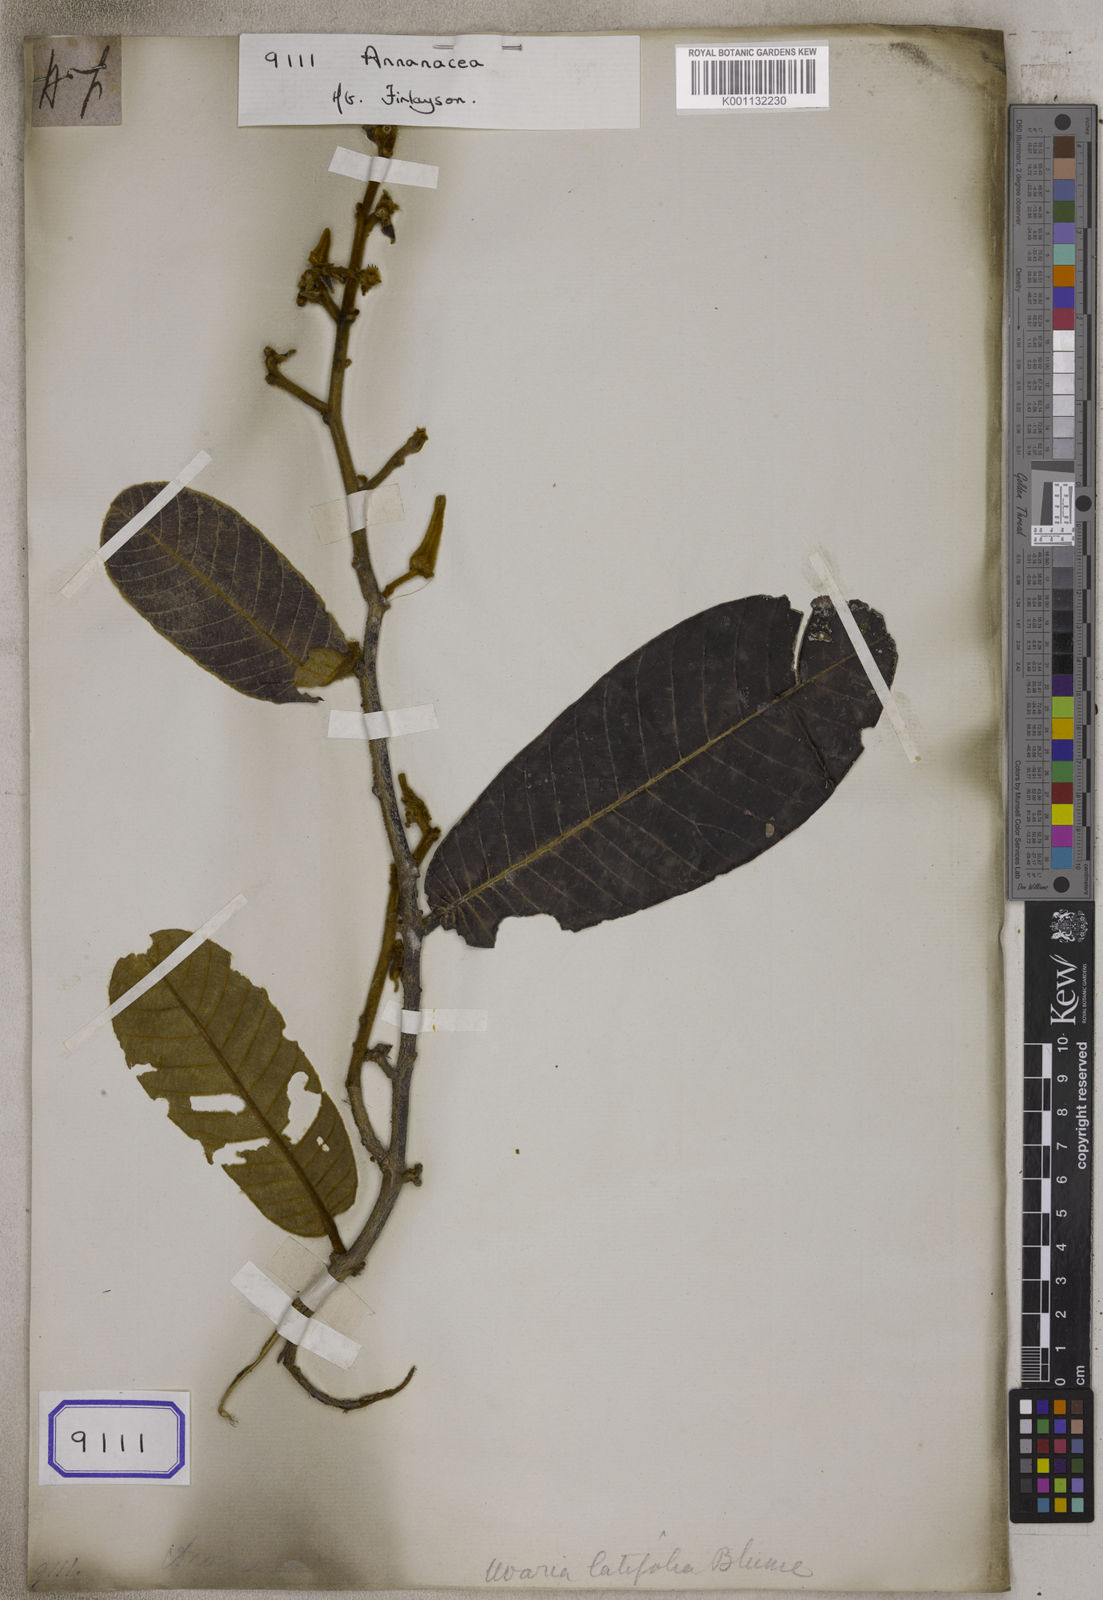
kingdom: Plantae
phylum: Tracheophyta
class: Magnoliopsida
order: Magnoliales
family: Annonaceae
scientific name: Annonaceae
